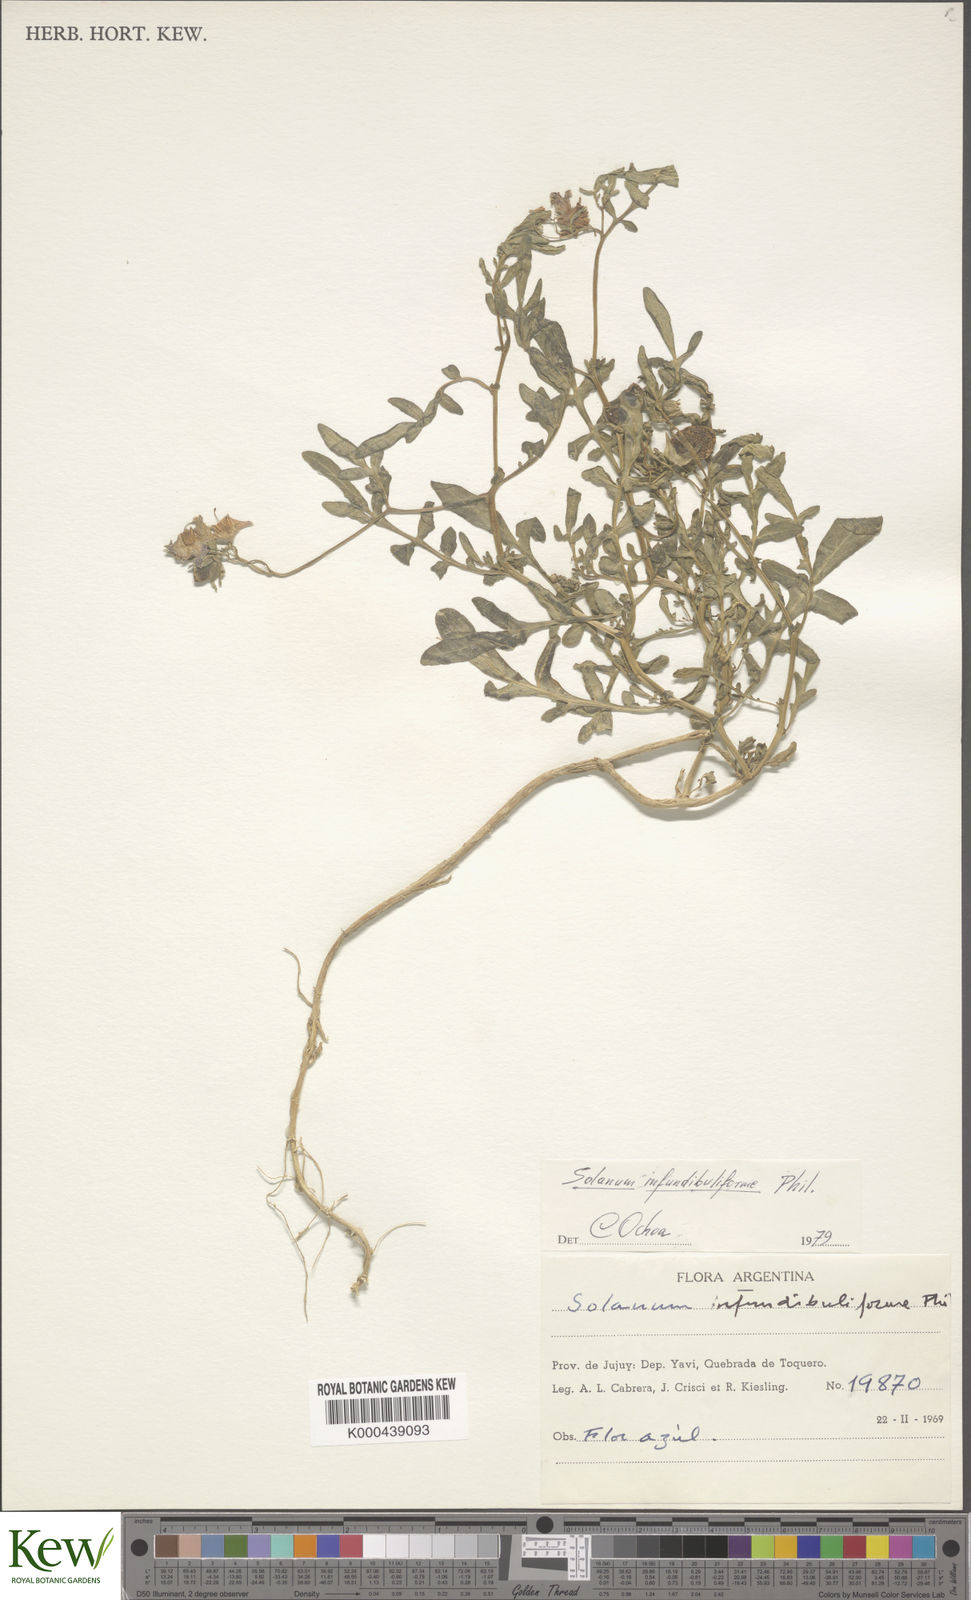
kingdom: Plantae
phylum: Tracheophyta
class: Magnoliopsida
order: Solanales
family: Solanaceae
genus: Solanum
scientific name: Solanum infundibuliforme
